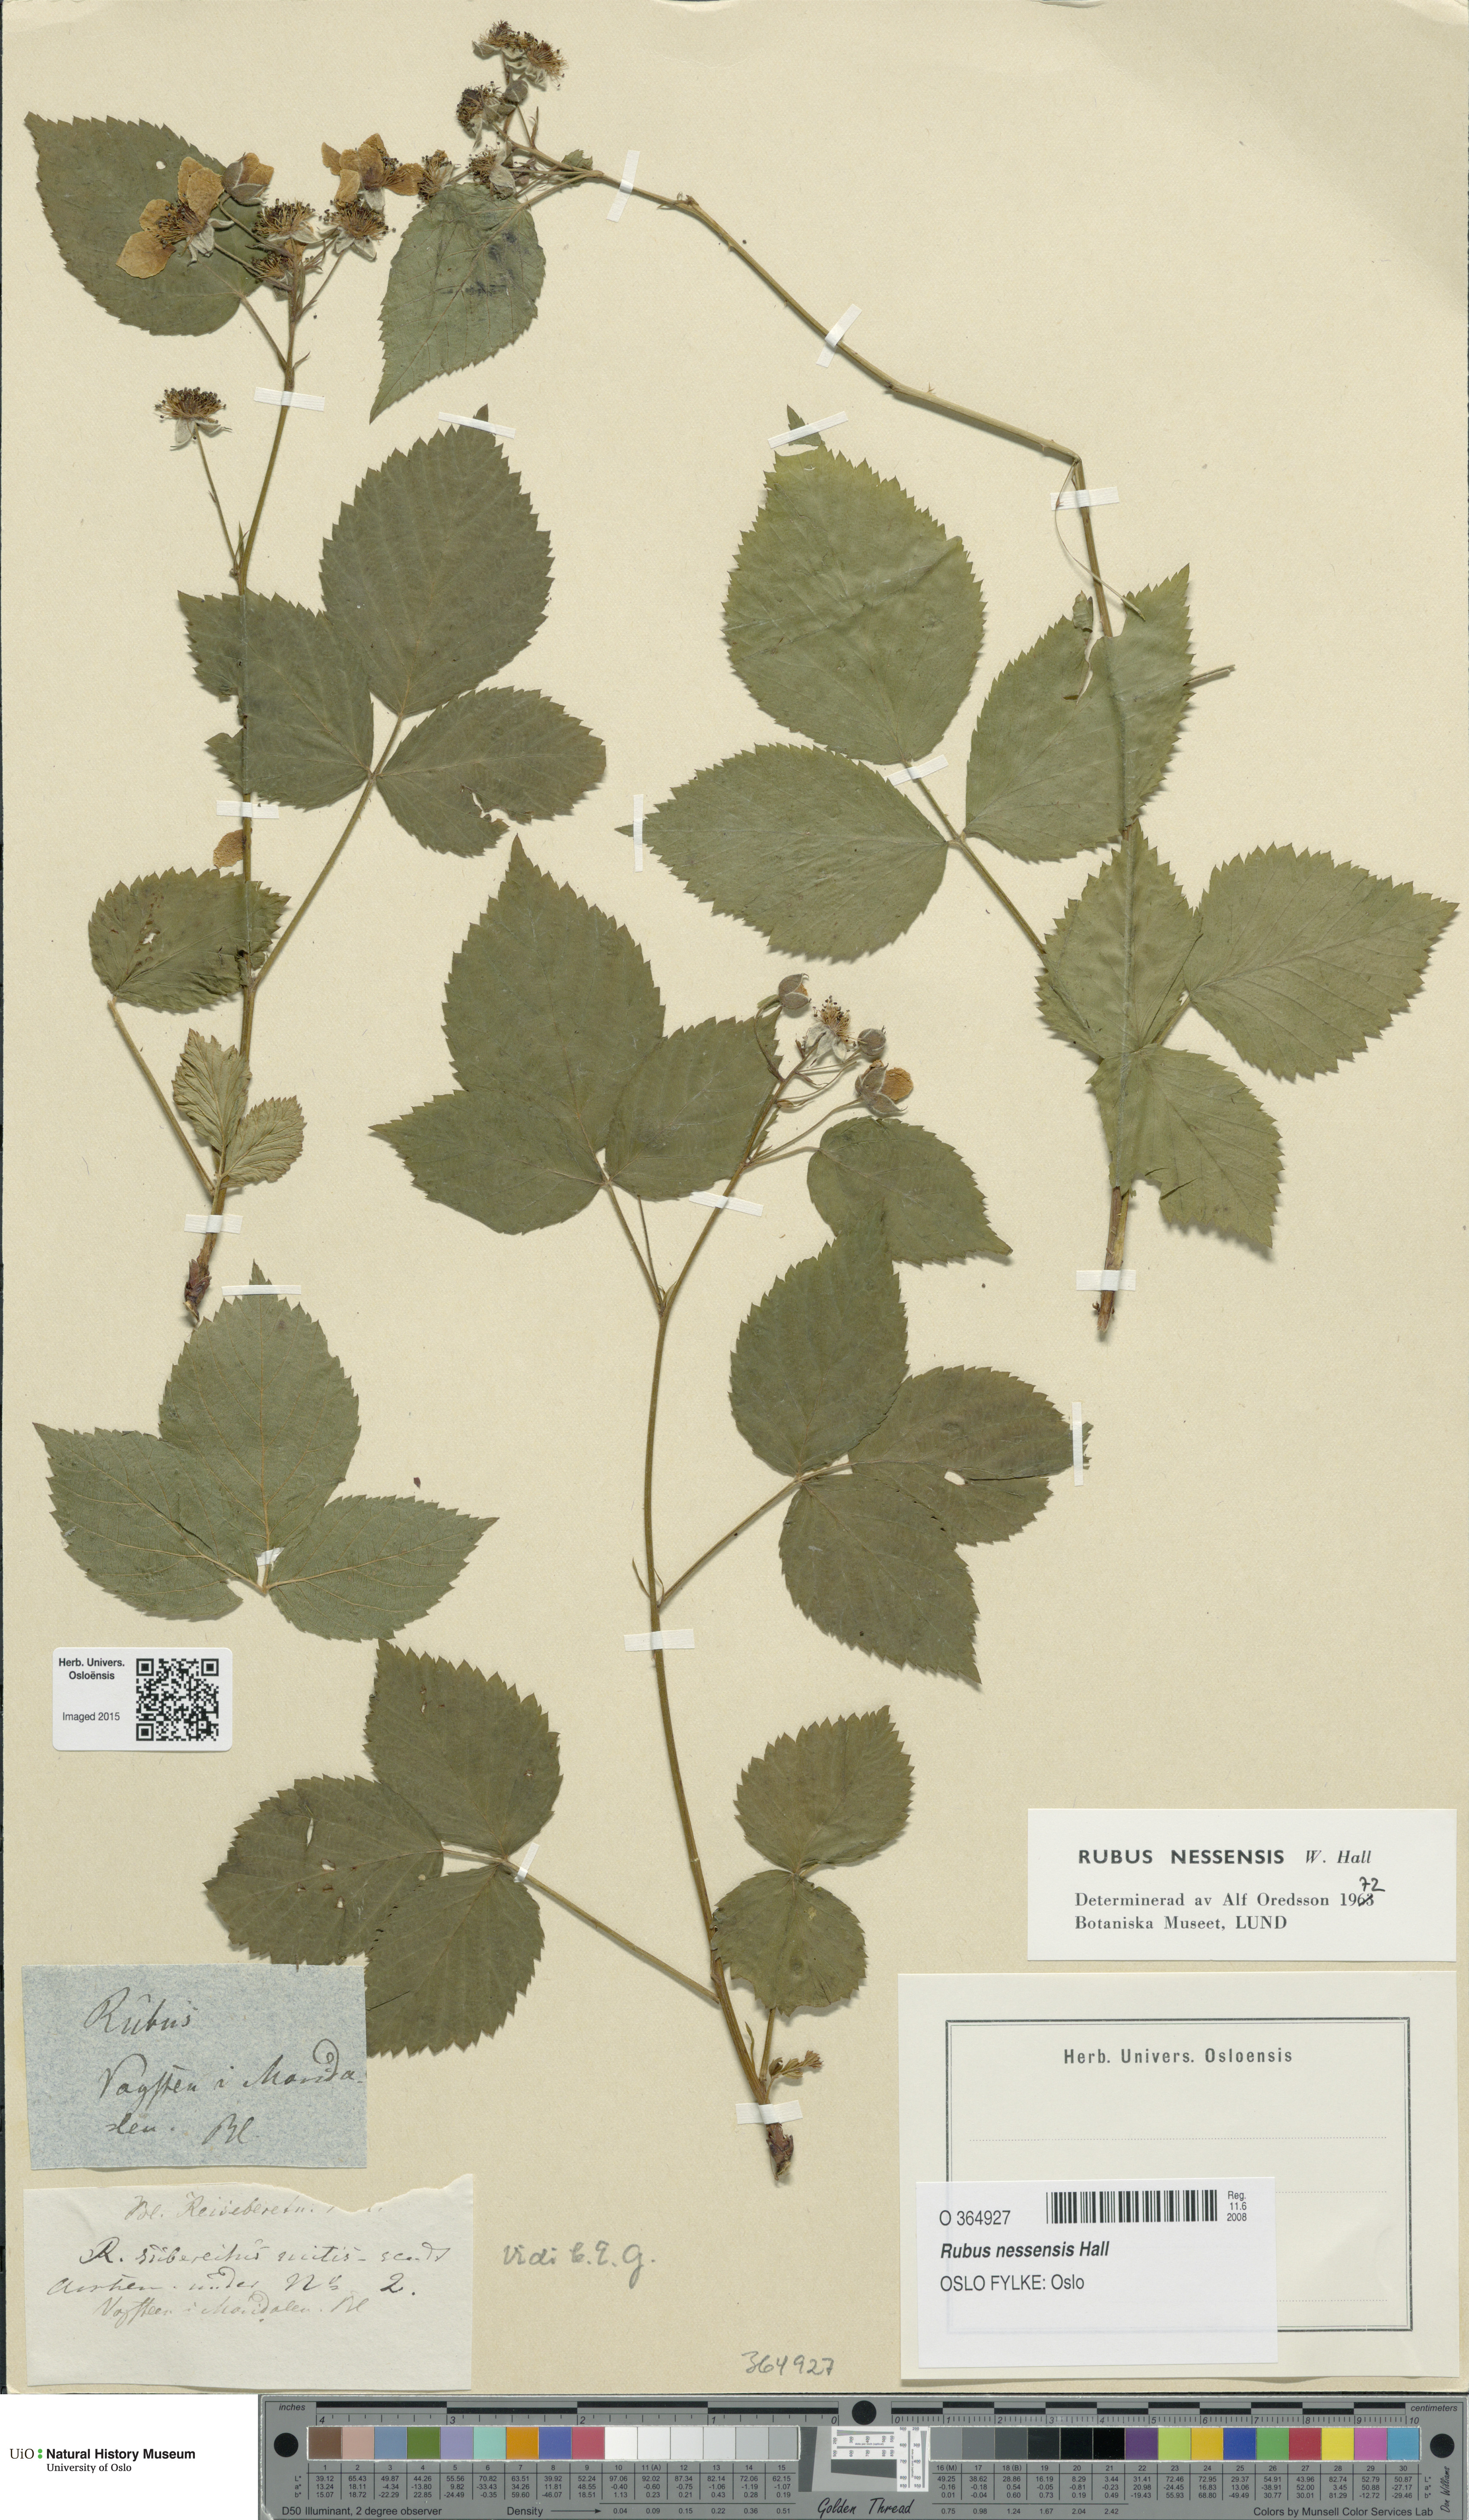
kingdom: Plantae
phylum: Tracheophyta
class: Magnoliopsida
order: Rosales
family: Rosaceae
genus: Rubus
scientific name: Rubus polonicus
